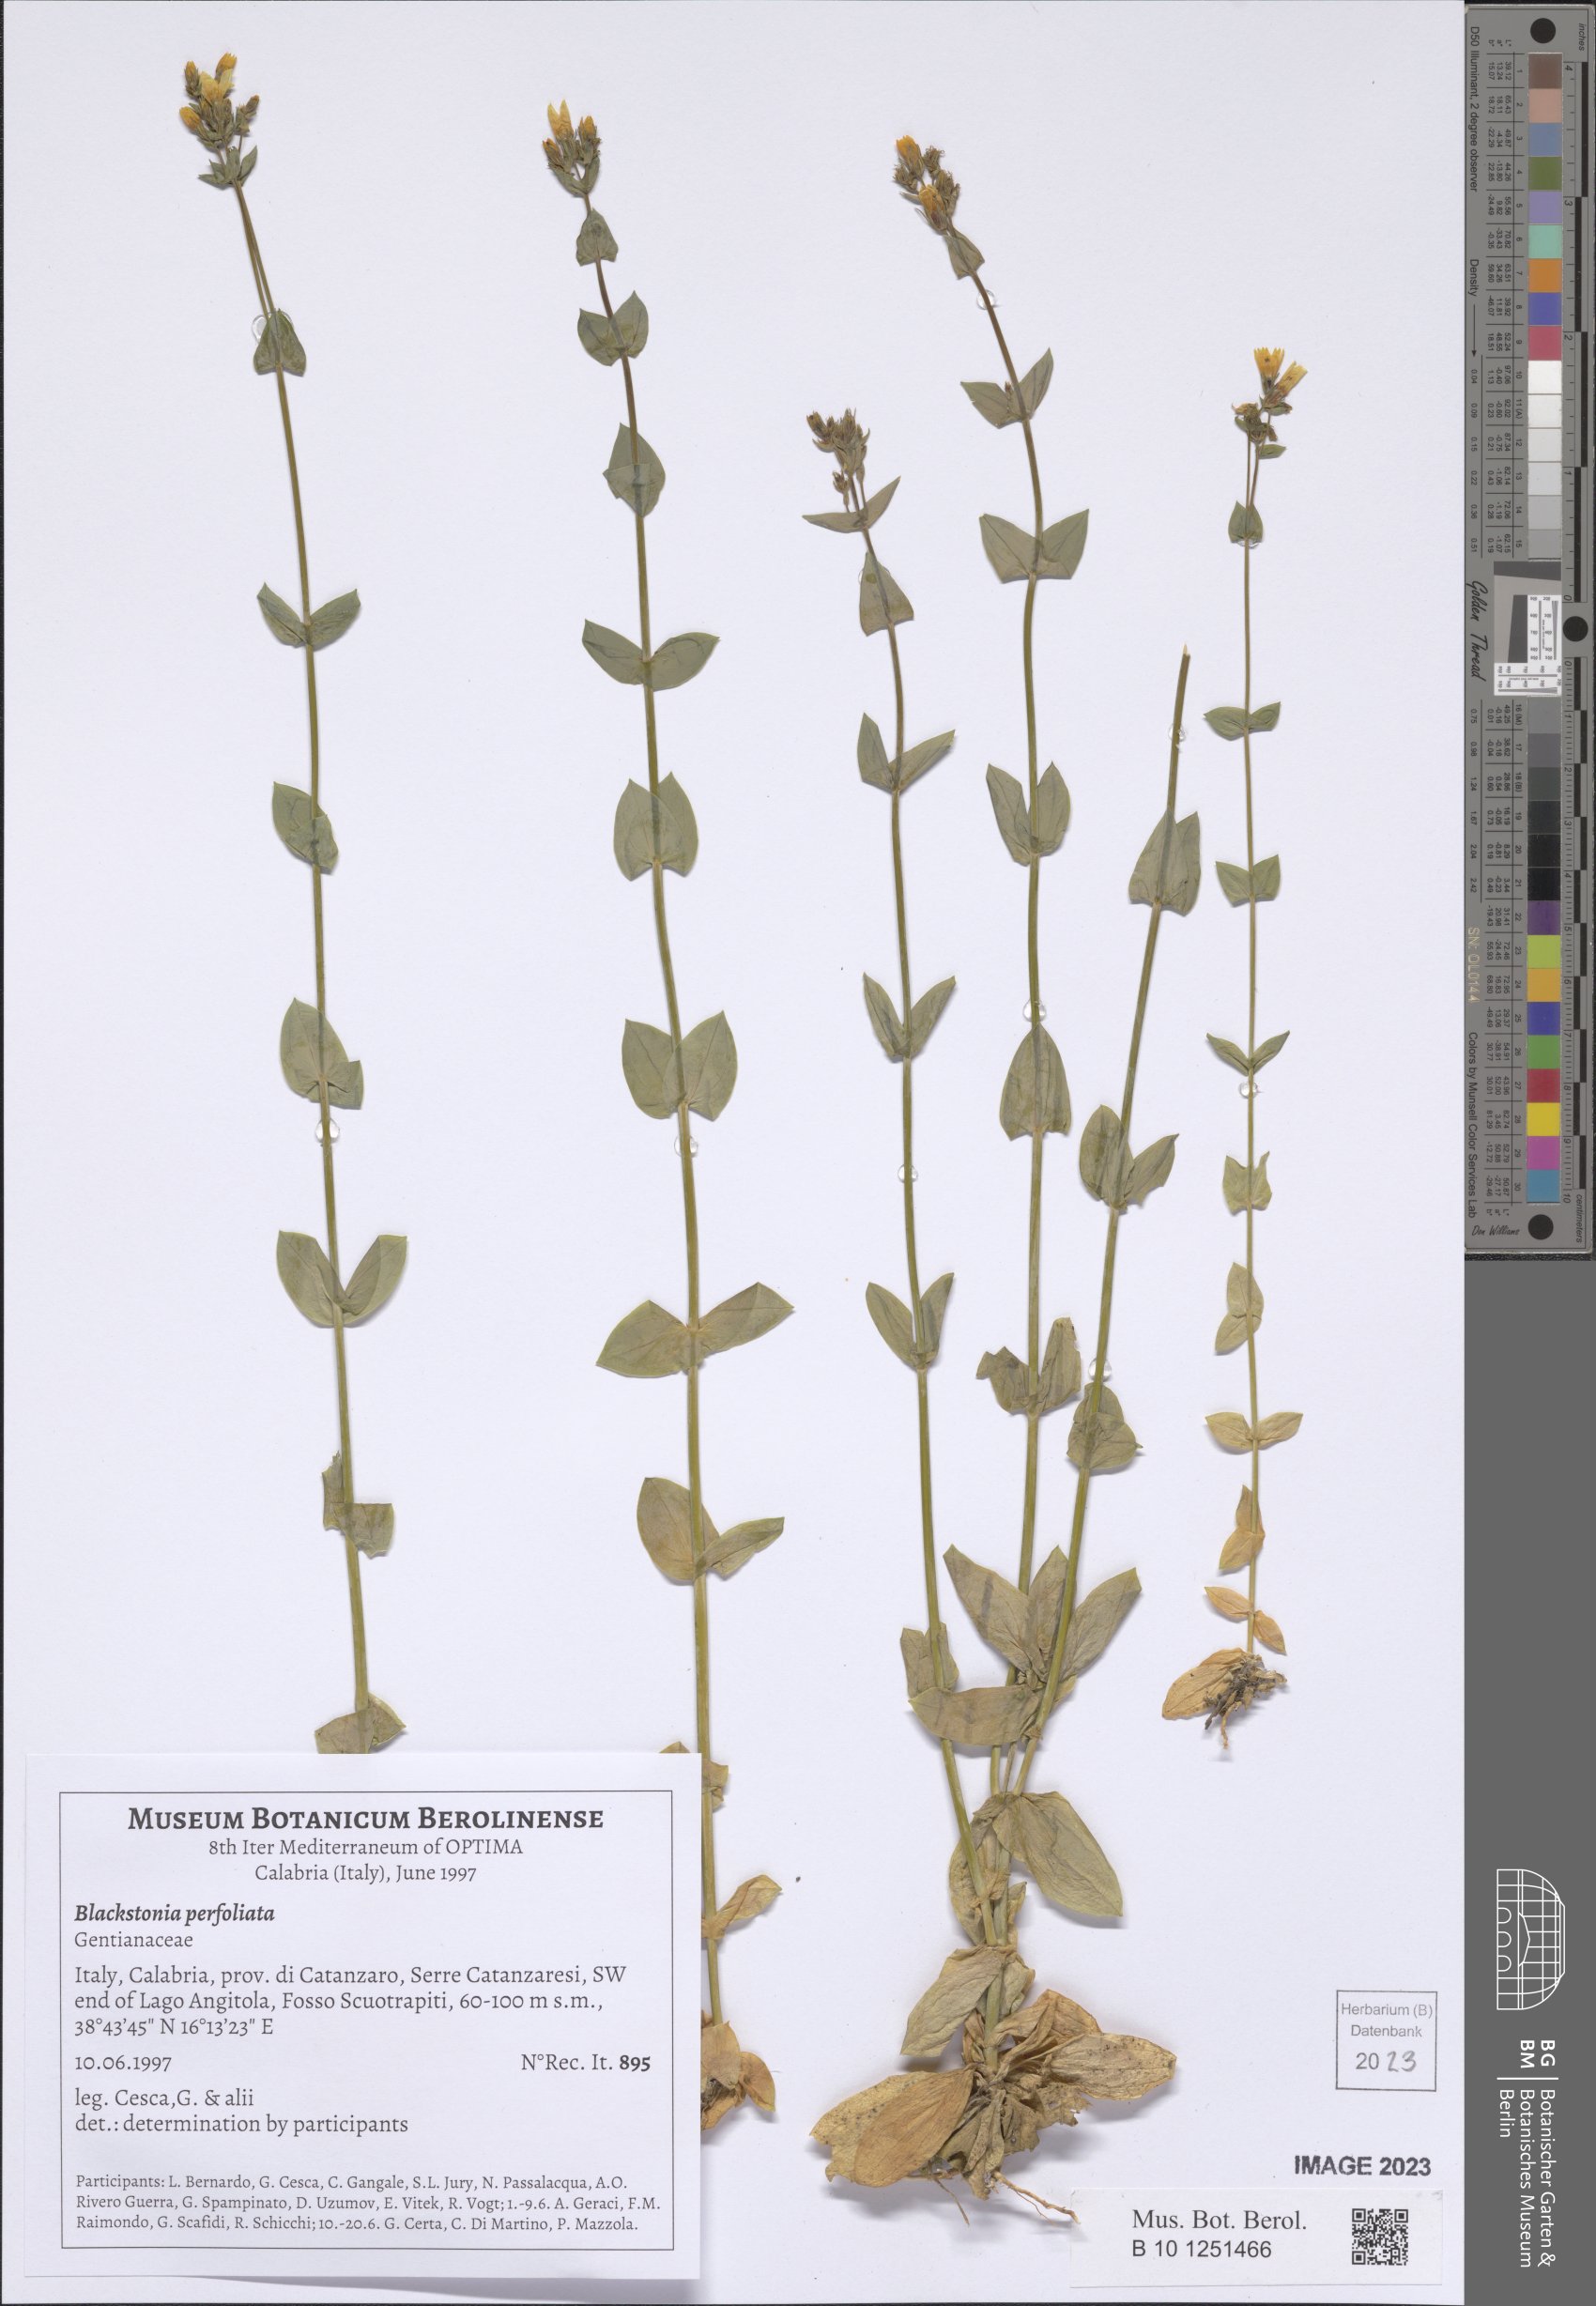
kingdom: Plantae
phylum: Tracheophyta
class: Magnoliopsida
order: Gentianales
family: Gentianaceae
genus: Blackstonia
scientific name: Blackstonia perfoliata
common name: Yellow-wort
